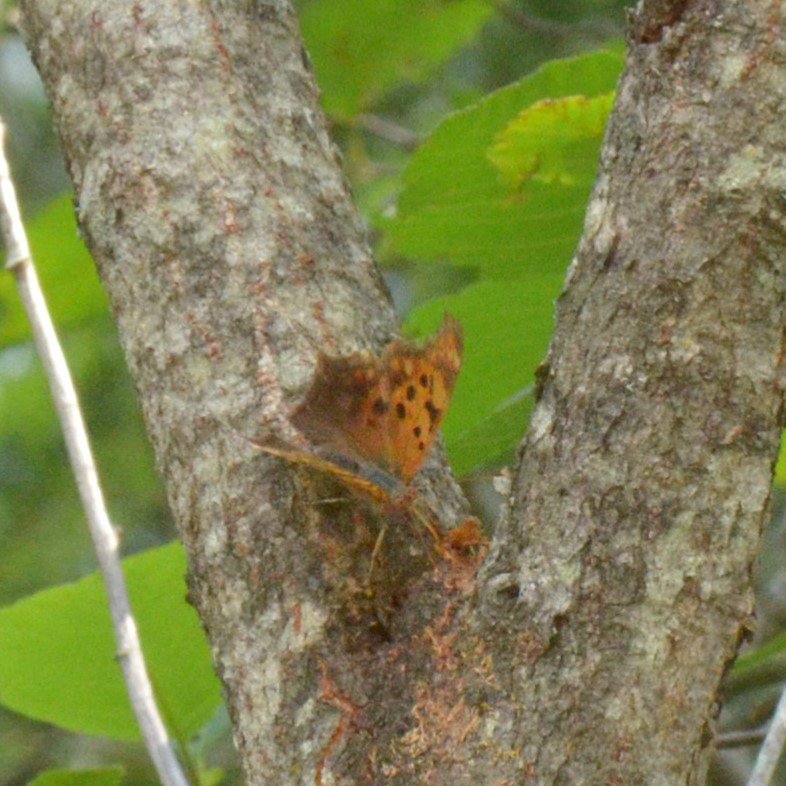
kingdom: Animalia
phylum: Arthropoda
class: Insecta
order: Lepidoptera
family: Nymphalidae
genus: Polygonia
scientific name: Polygonia interrogationis
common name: Question Mark
